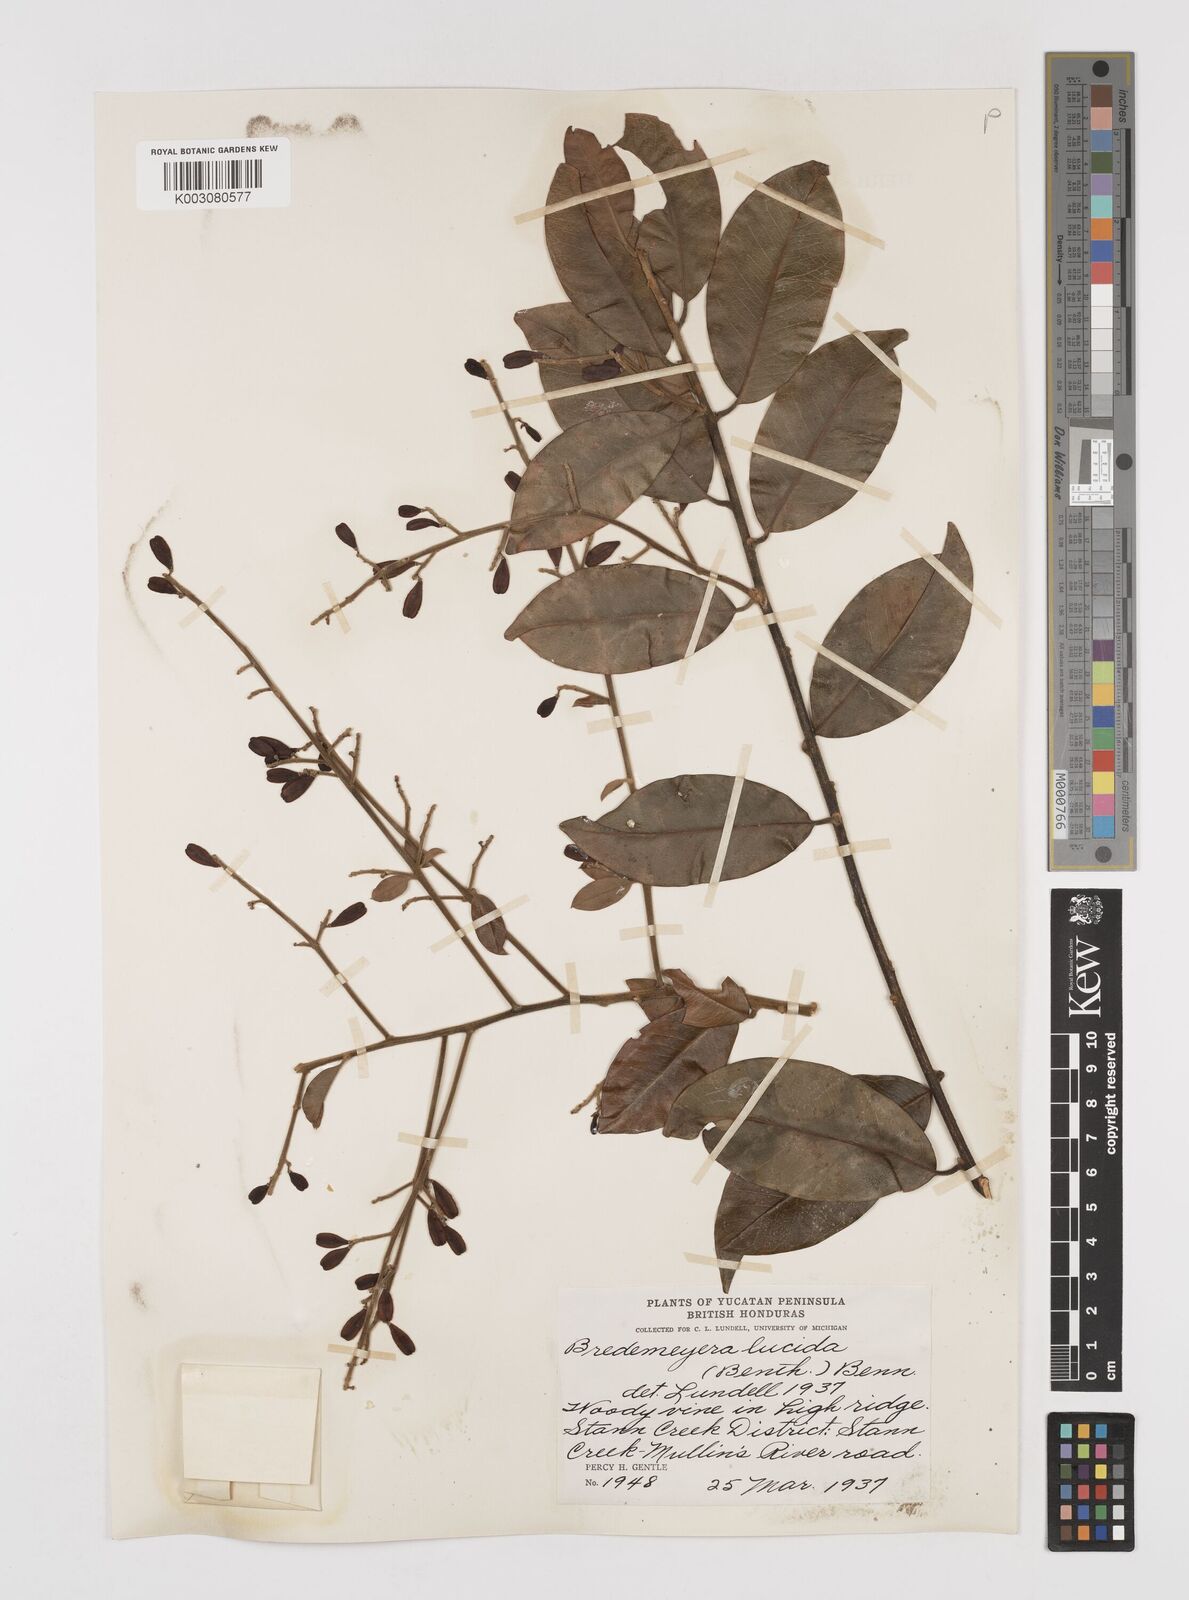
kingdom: Plantae
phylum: Tracheophyta
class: Magnoliopsida
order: Fabales
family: Polygalaceae
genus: Bredemeyera
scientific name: Bredemeyera lucida
